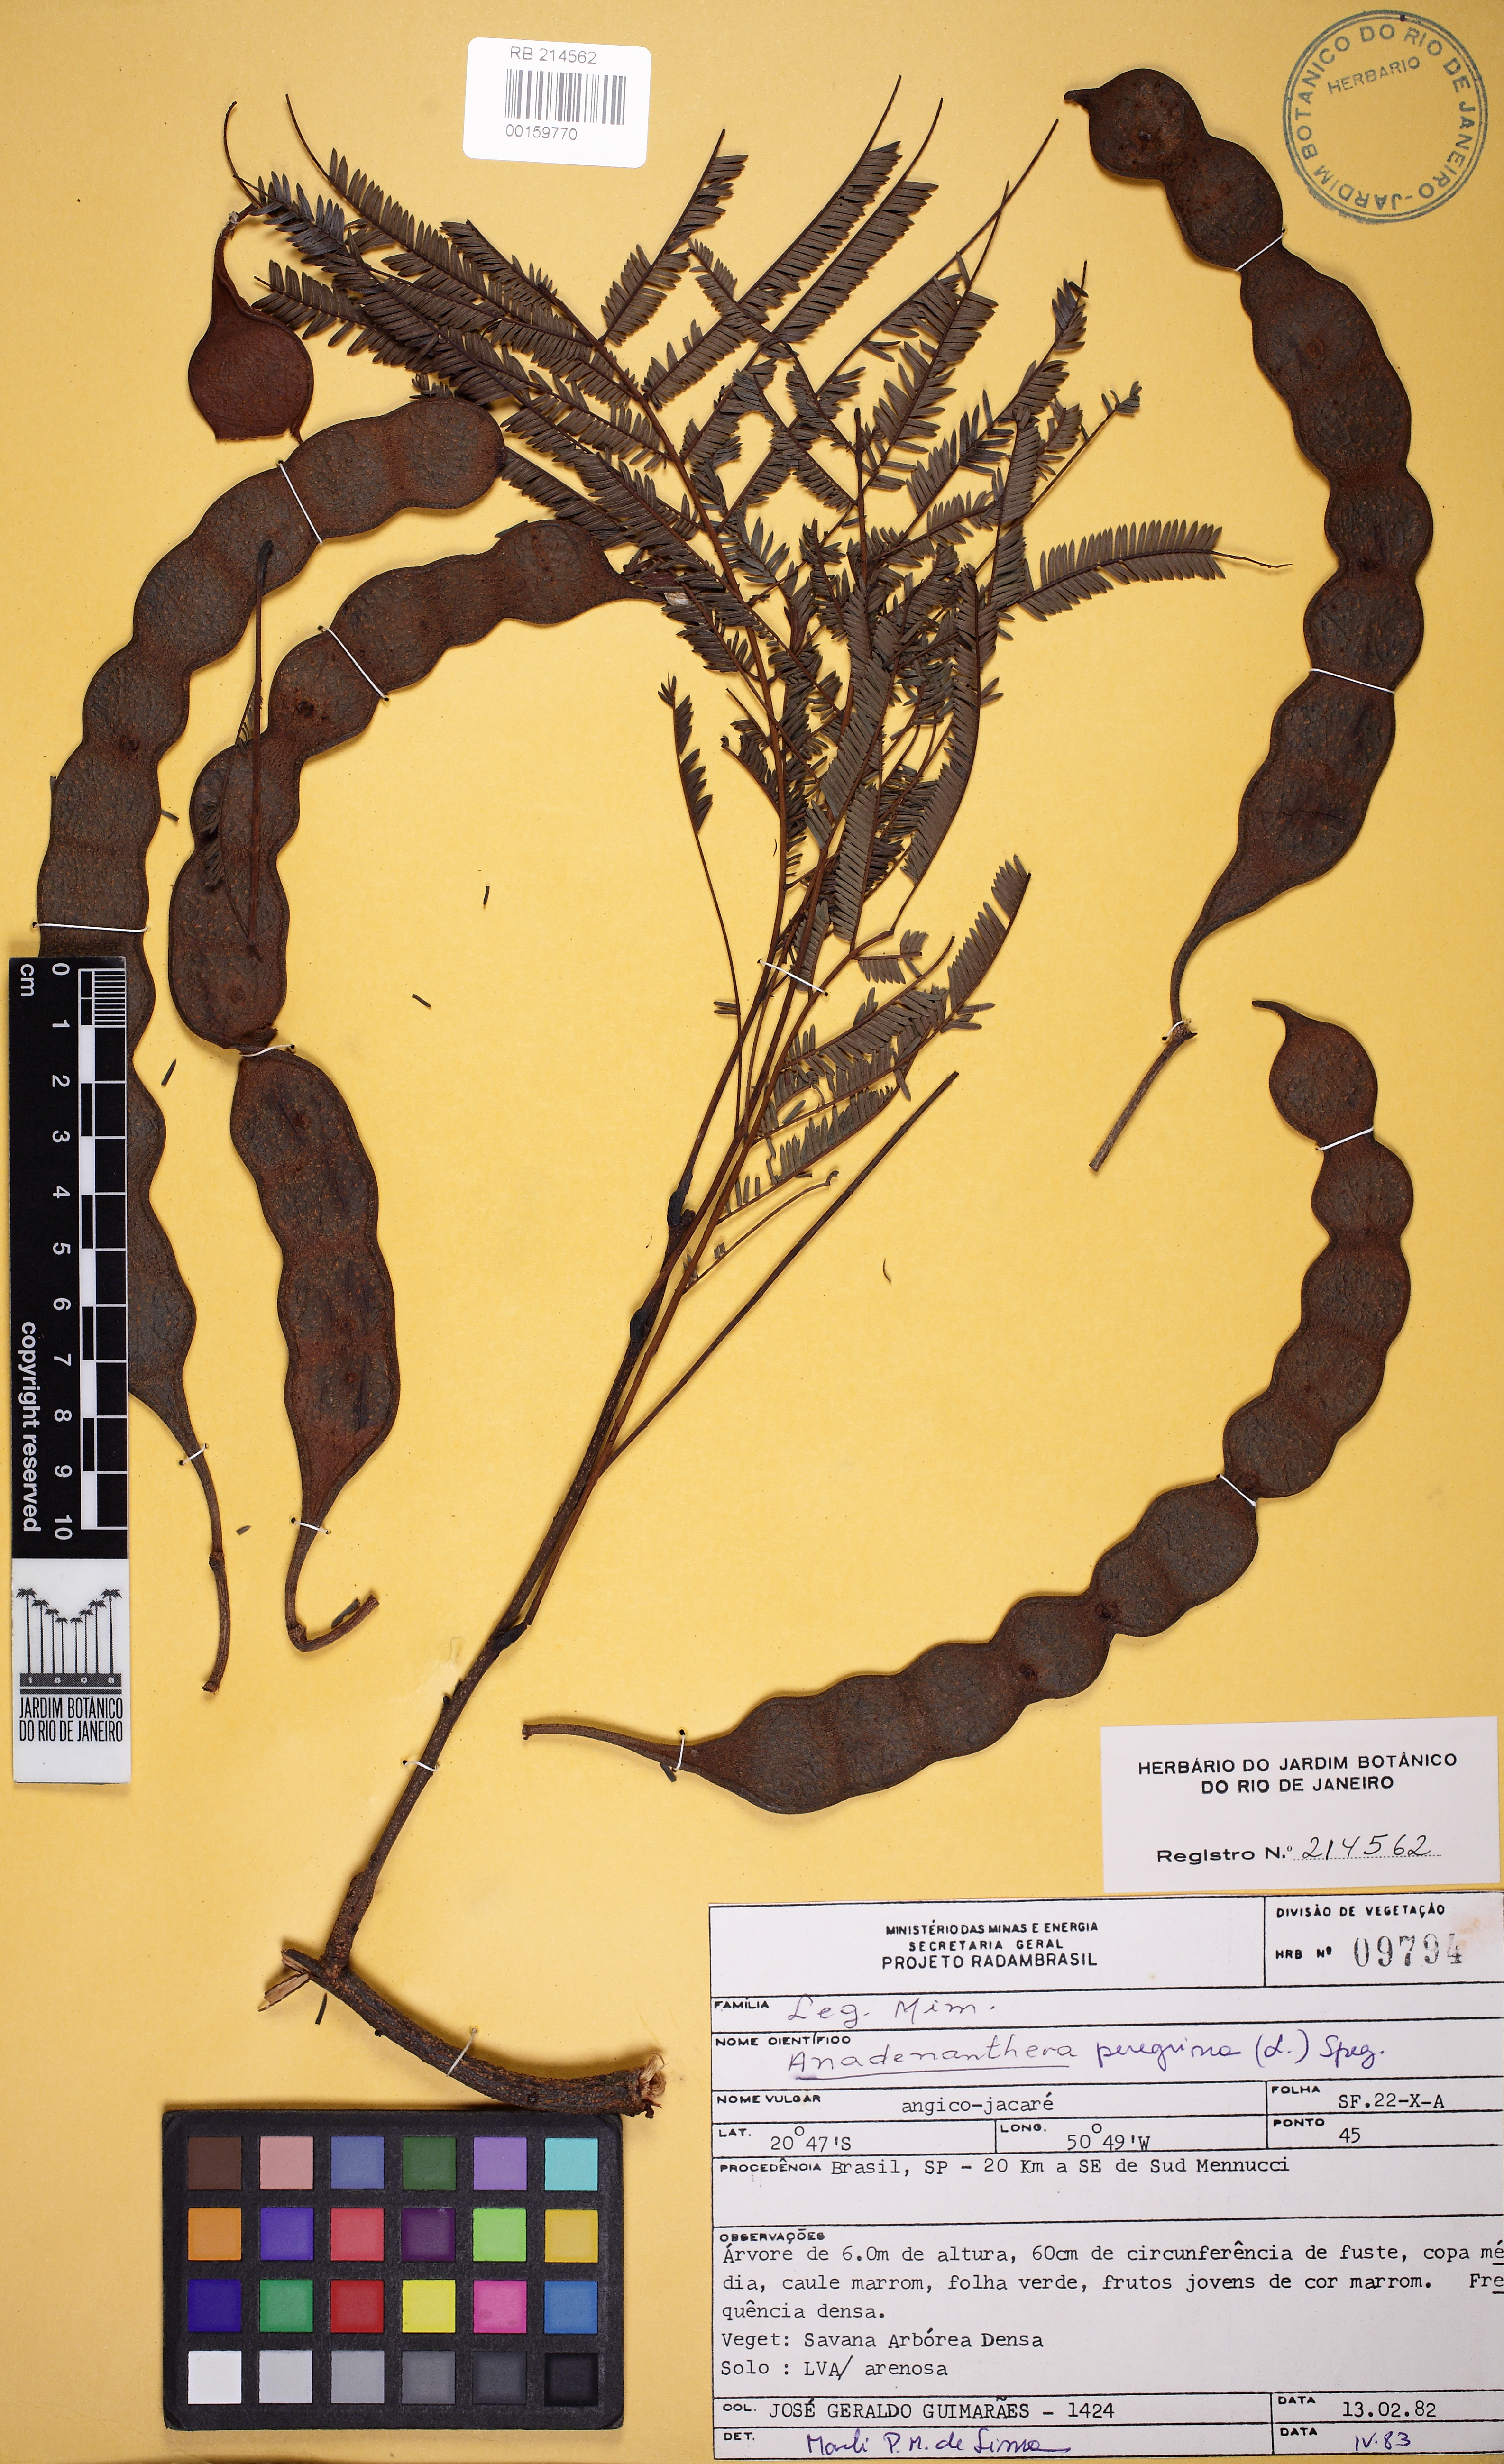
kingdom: Plantae
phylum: Tracheophyta
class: Magnoliopsida
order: Fabales
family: Fabaceae
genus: Anadenanthera
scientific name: Anadenanthera peregrina
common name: Cohoba
